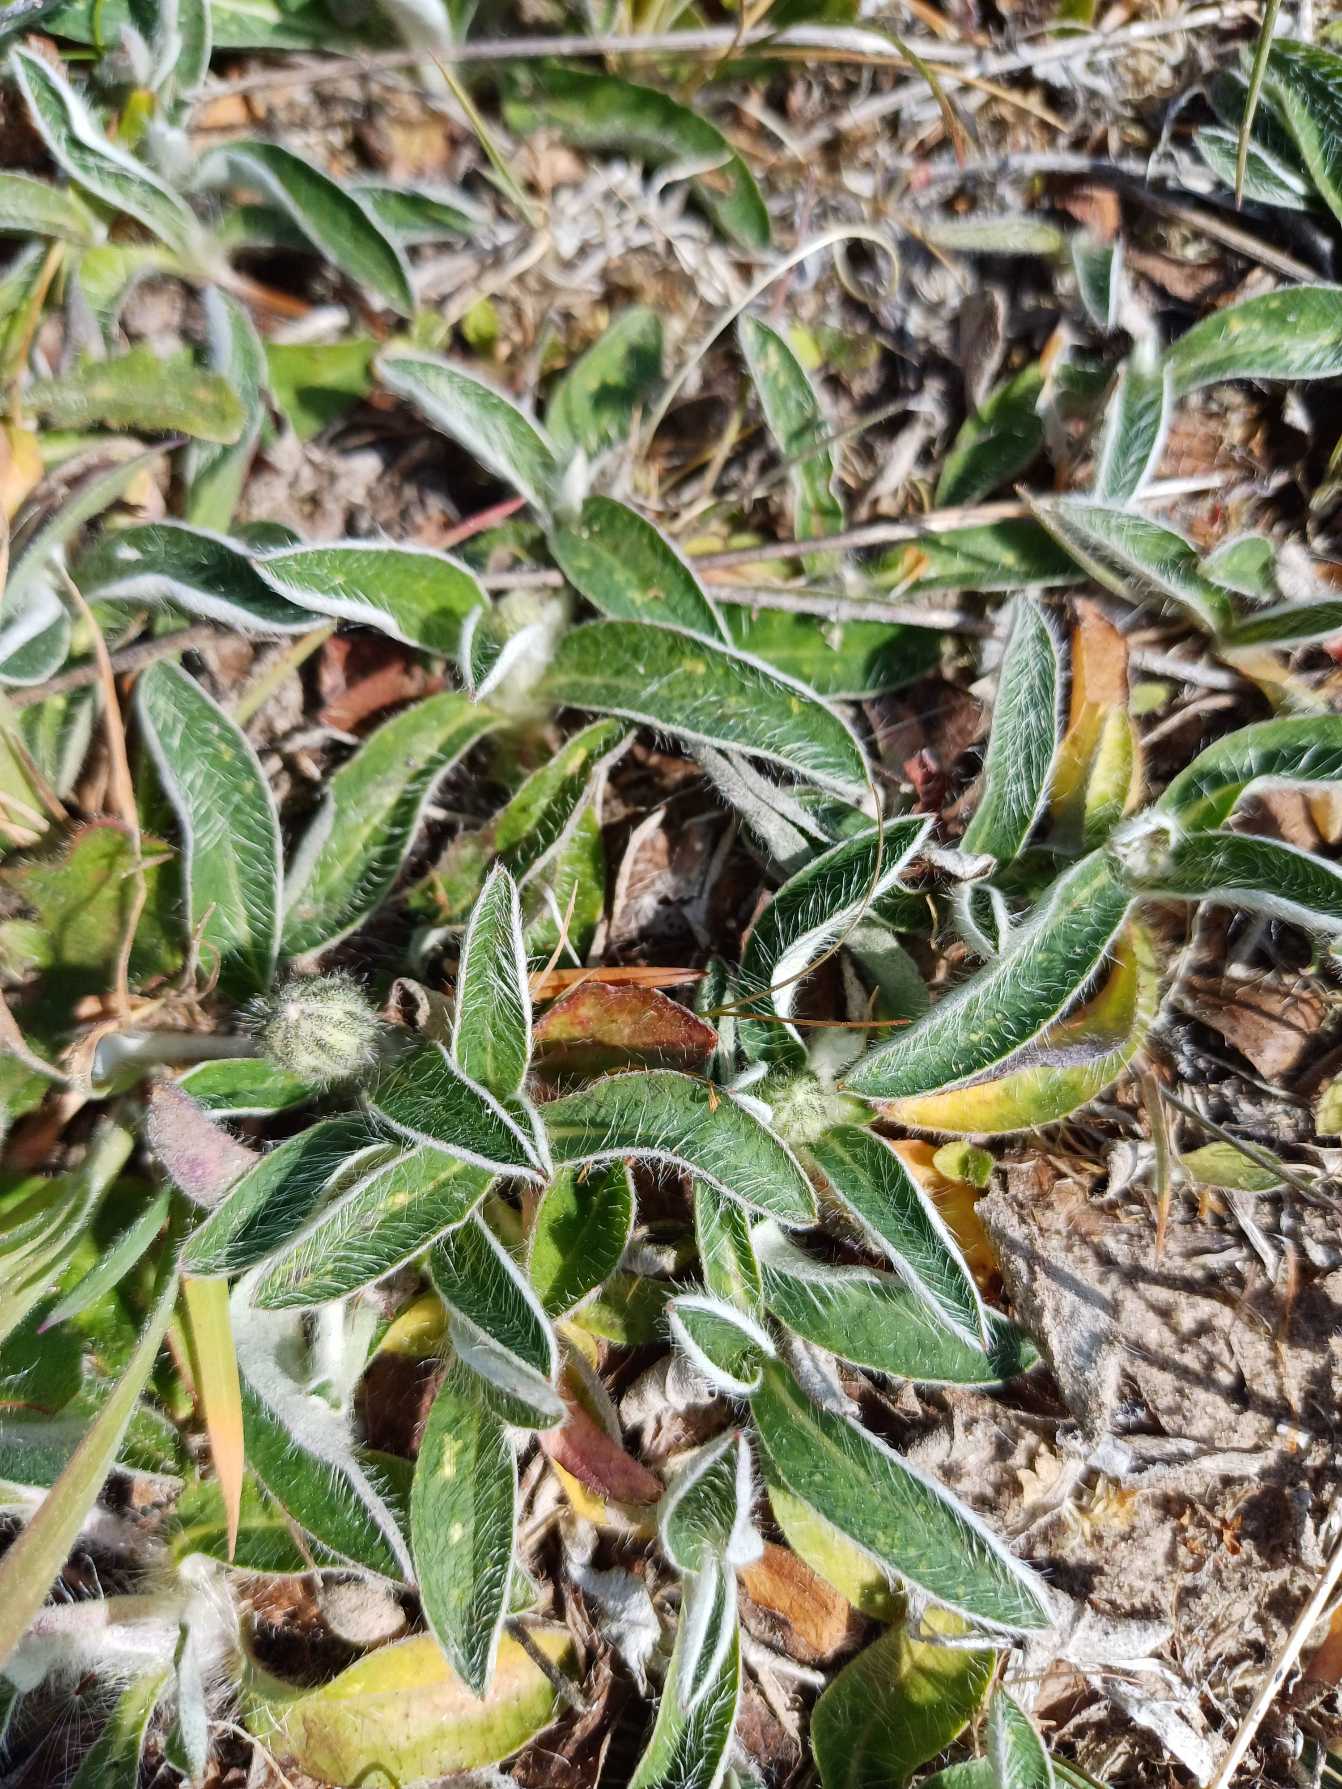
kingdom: Plantae
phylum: Tracheophyta
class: Magnoliopsida
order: Asterales
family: Asteraceae
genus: Pilosella
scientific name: Pilosella officinarum
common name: Håret høgeurt
